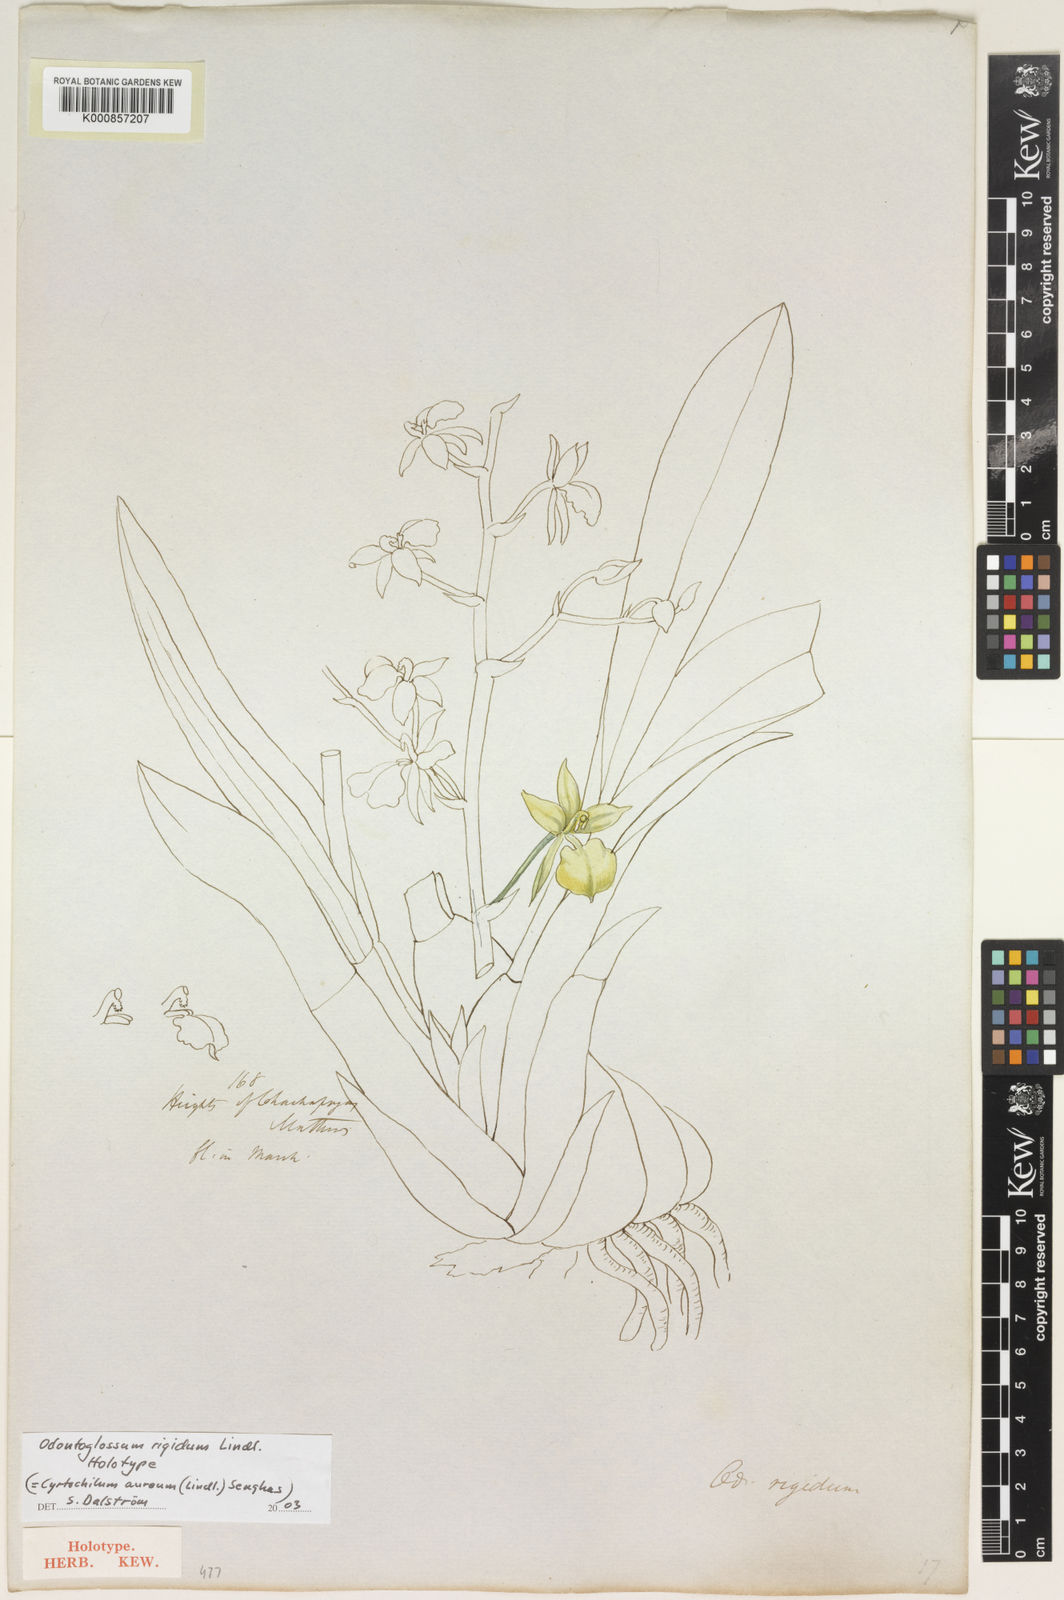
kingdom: Plantae
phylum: Tracheophyta
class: Liliopsida
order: Asparagales
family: Orchidaceae
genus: Cyrtochilum
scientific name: Cyrtochilum aureum
